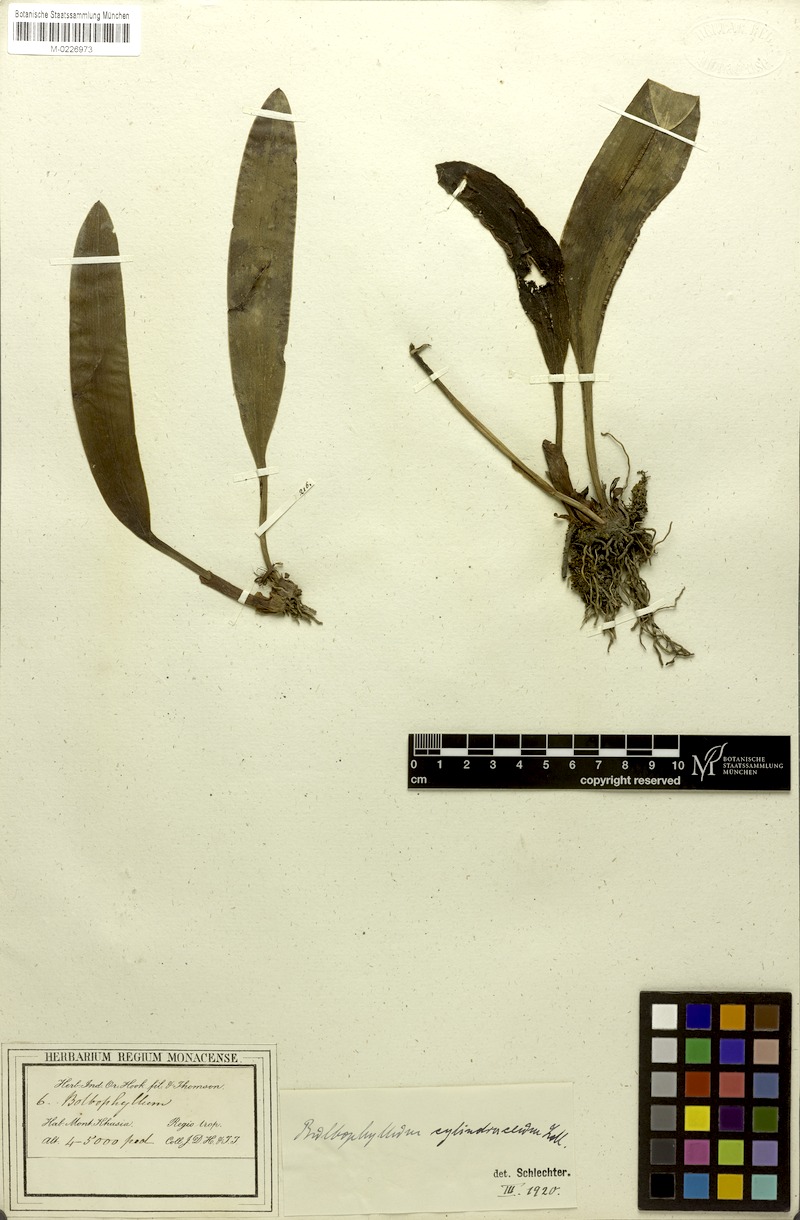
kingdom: Plantae
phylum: Tracheophyta
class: Liliopsida
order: Asparagales
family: Orchidaceae
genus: Bulbophyllum
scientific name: Bulbophyllum cylindraceum
